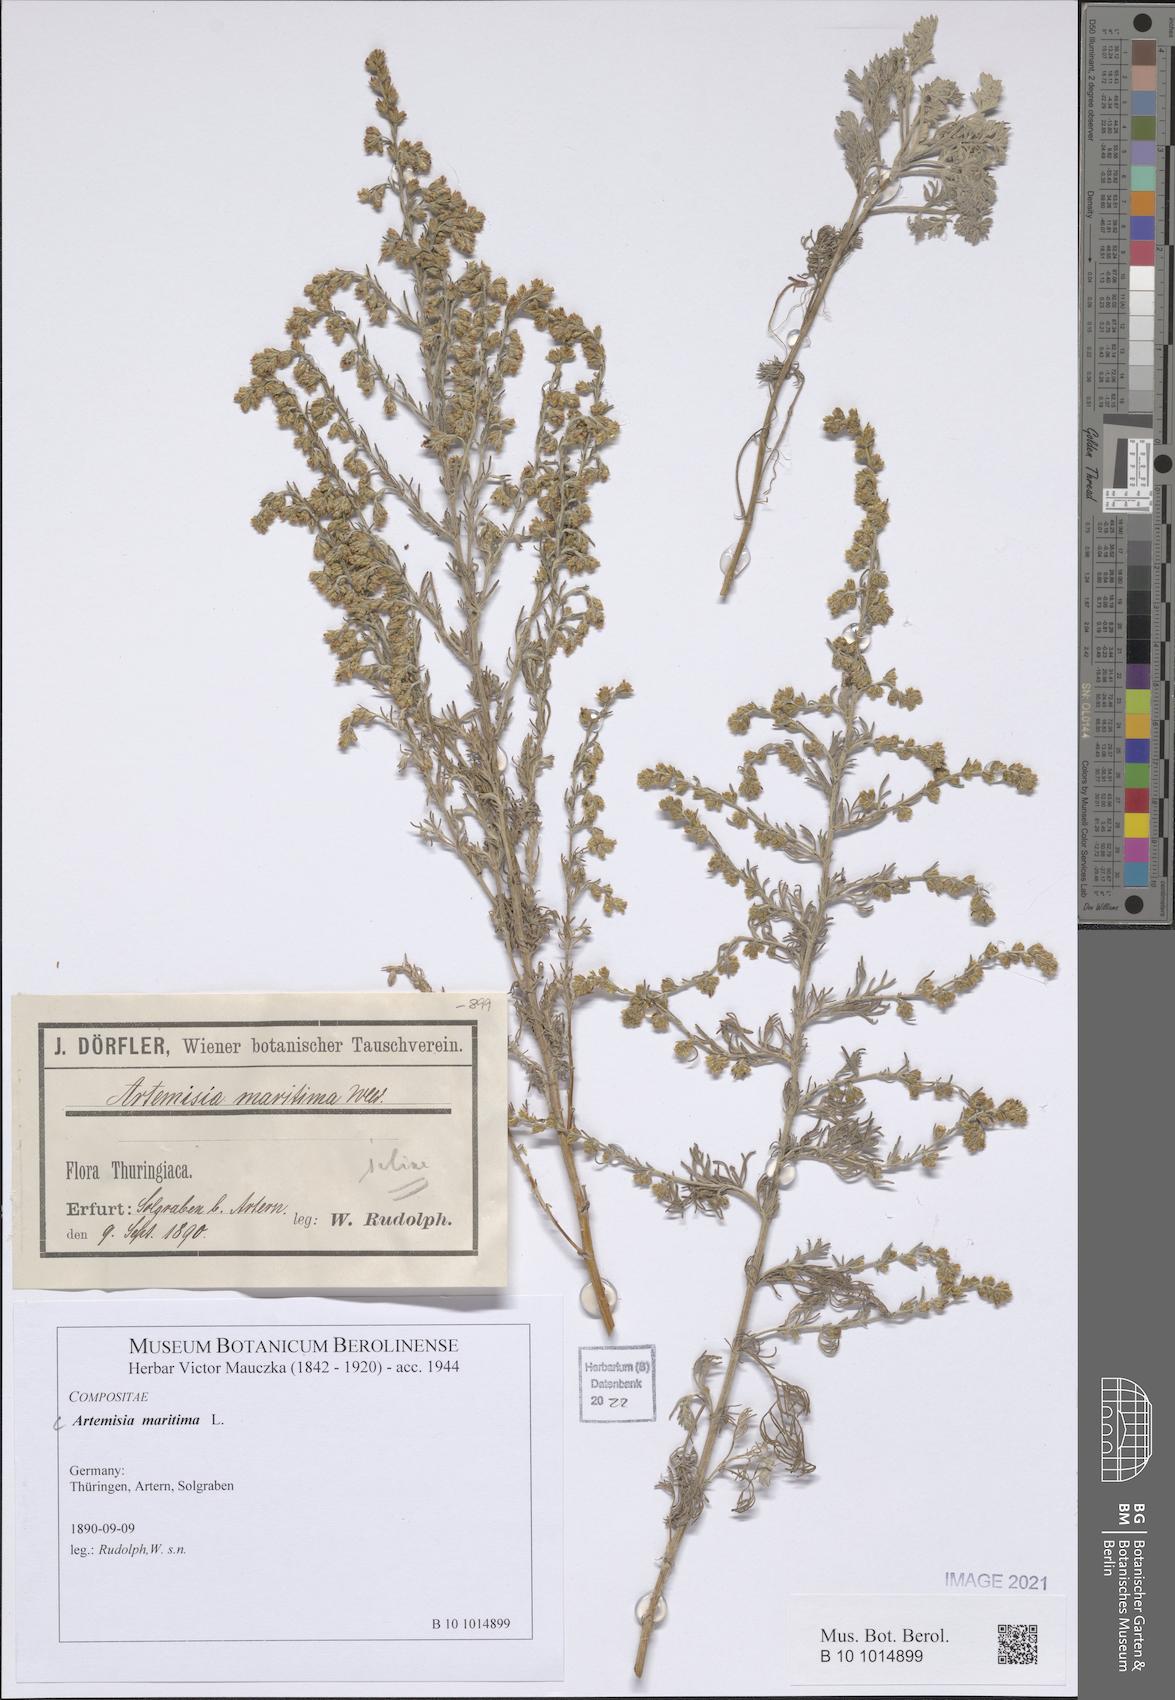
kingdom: Plantae
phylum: Tracheophyta
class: Magnoliopsida
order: Asterales
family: Asteraceae
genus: Artemisia
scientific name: Artemisia maritima
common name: Wormseed
